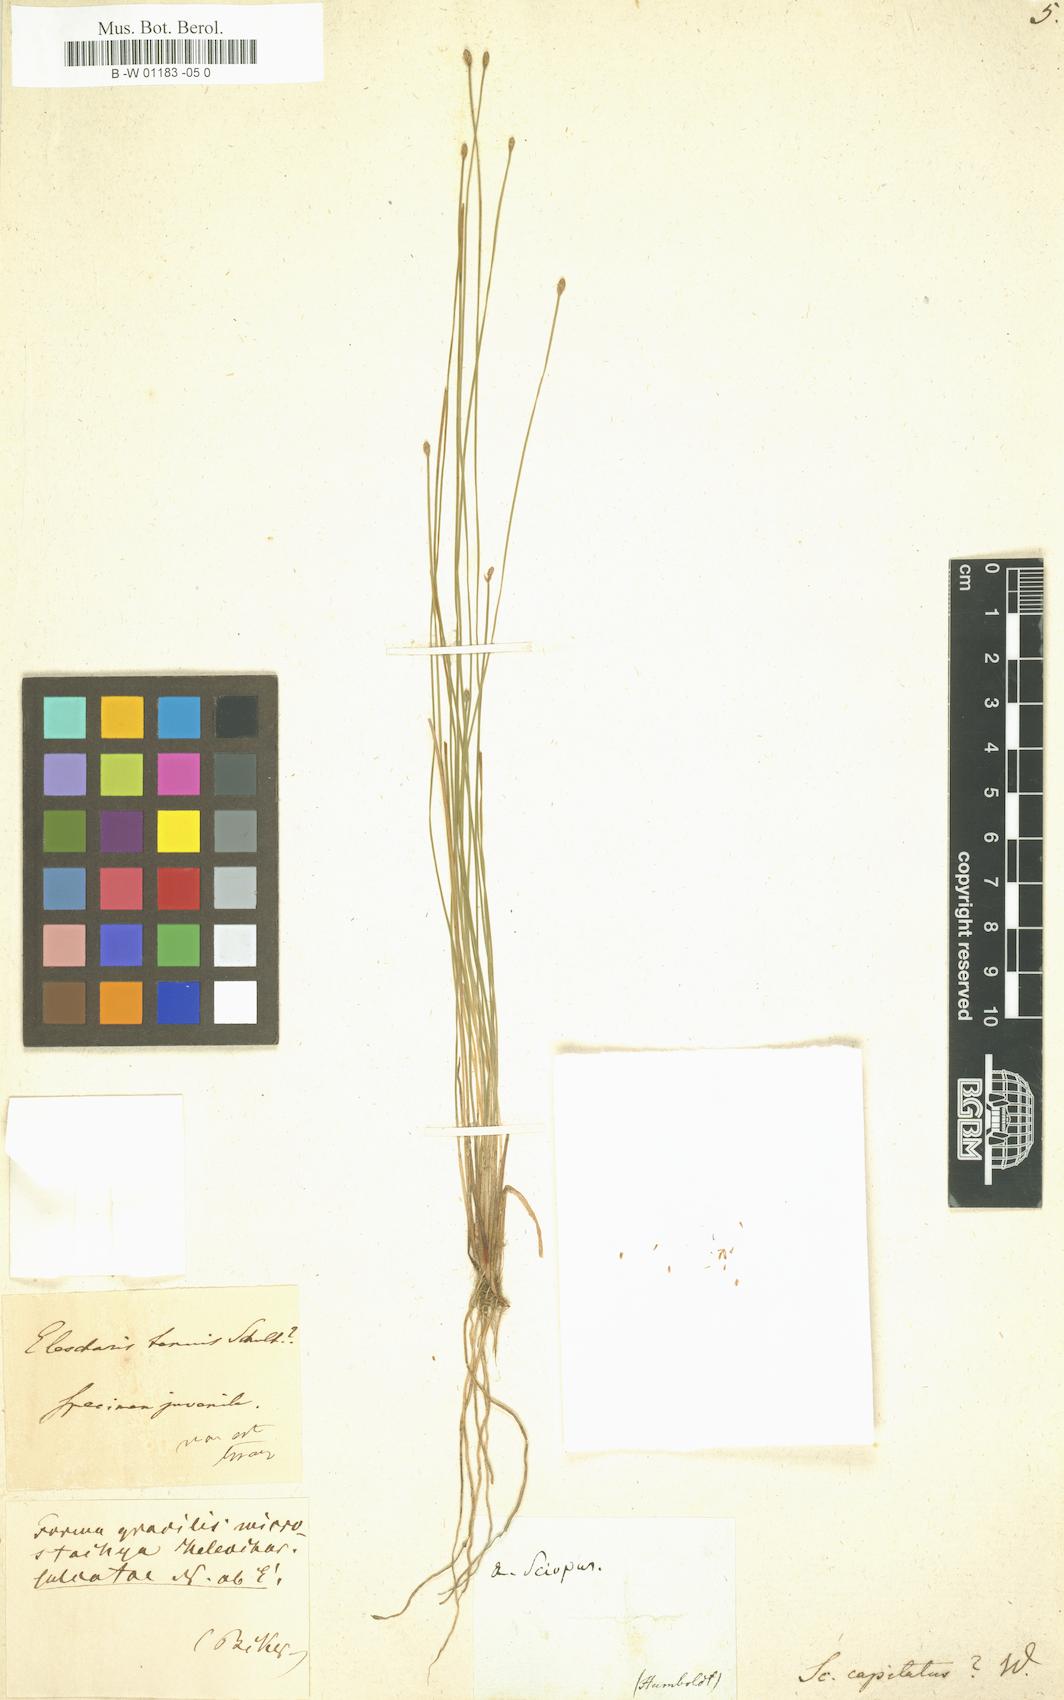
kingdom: Plantae
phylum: Tracheophyta
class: Liliopsida
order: Poales
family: Cyperaceae
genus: Eleocharis
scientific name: Eleocharis geniculata
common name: Canada spikesedge
